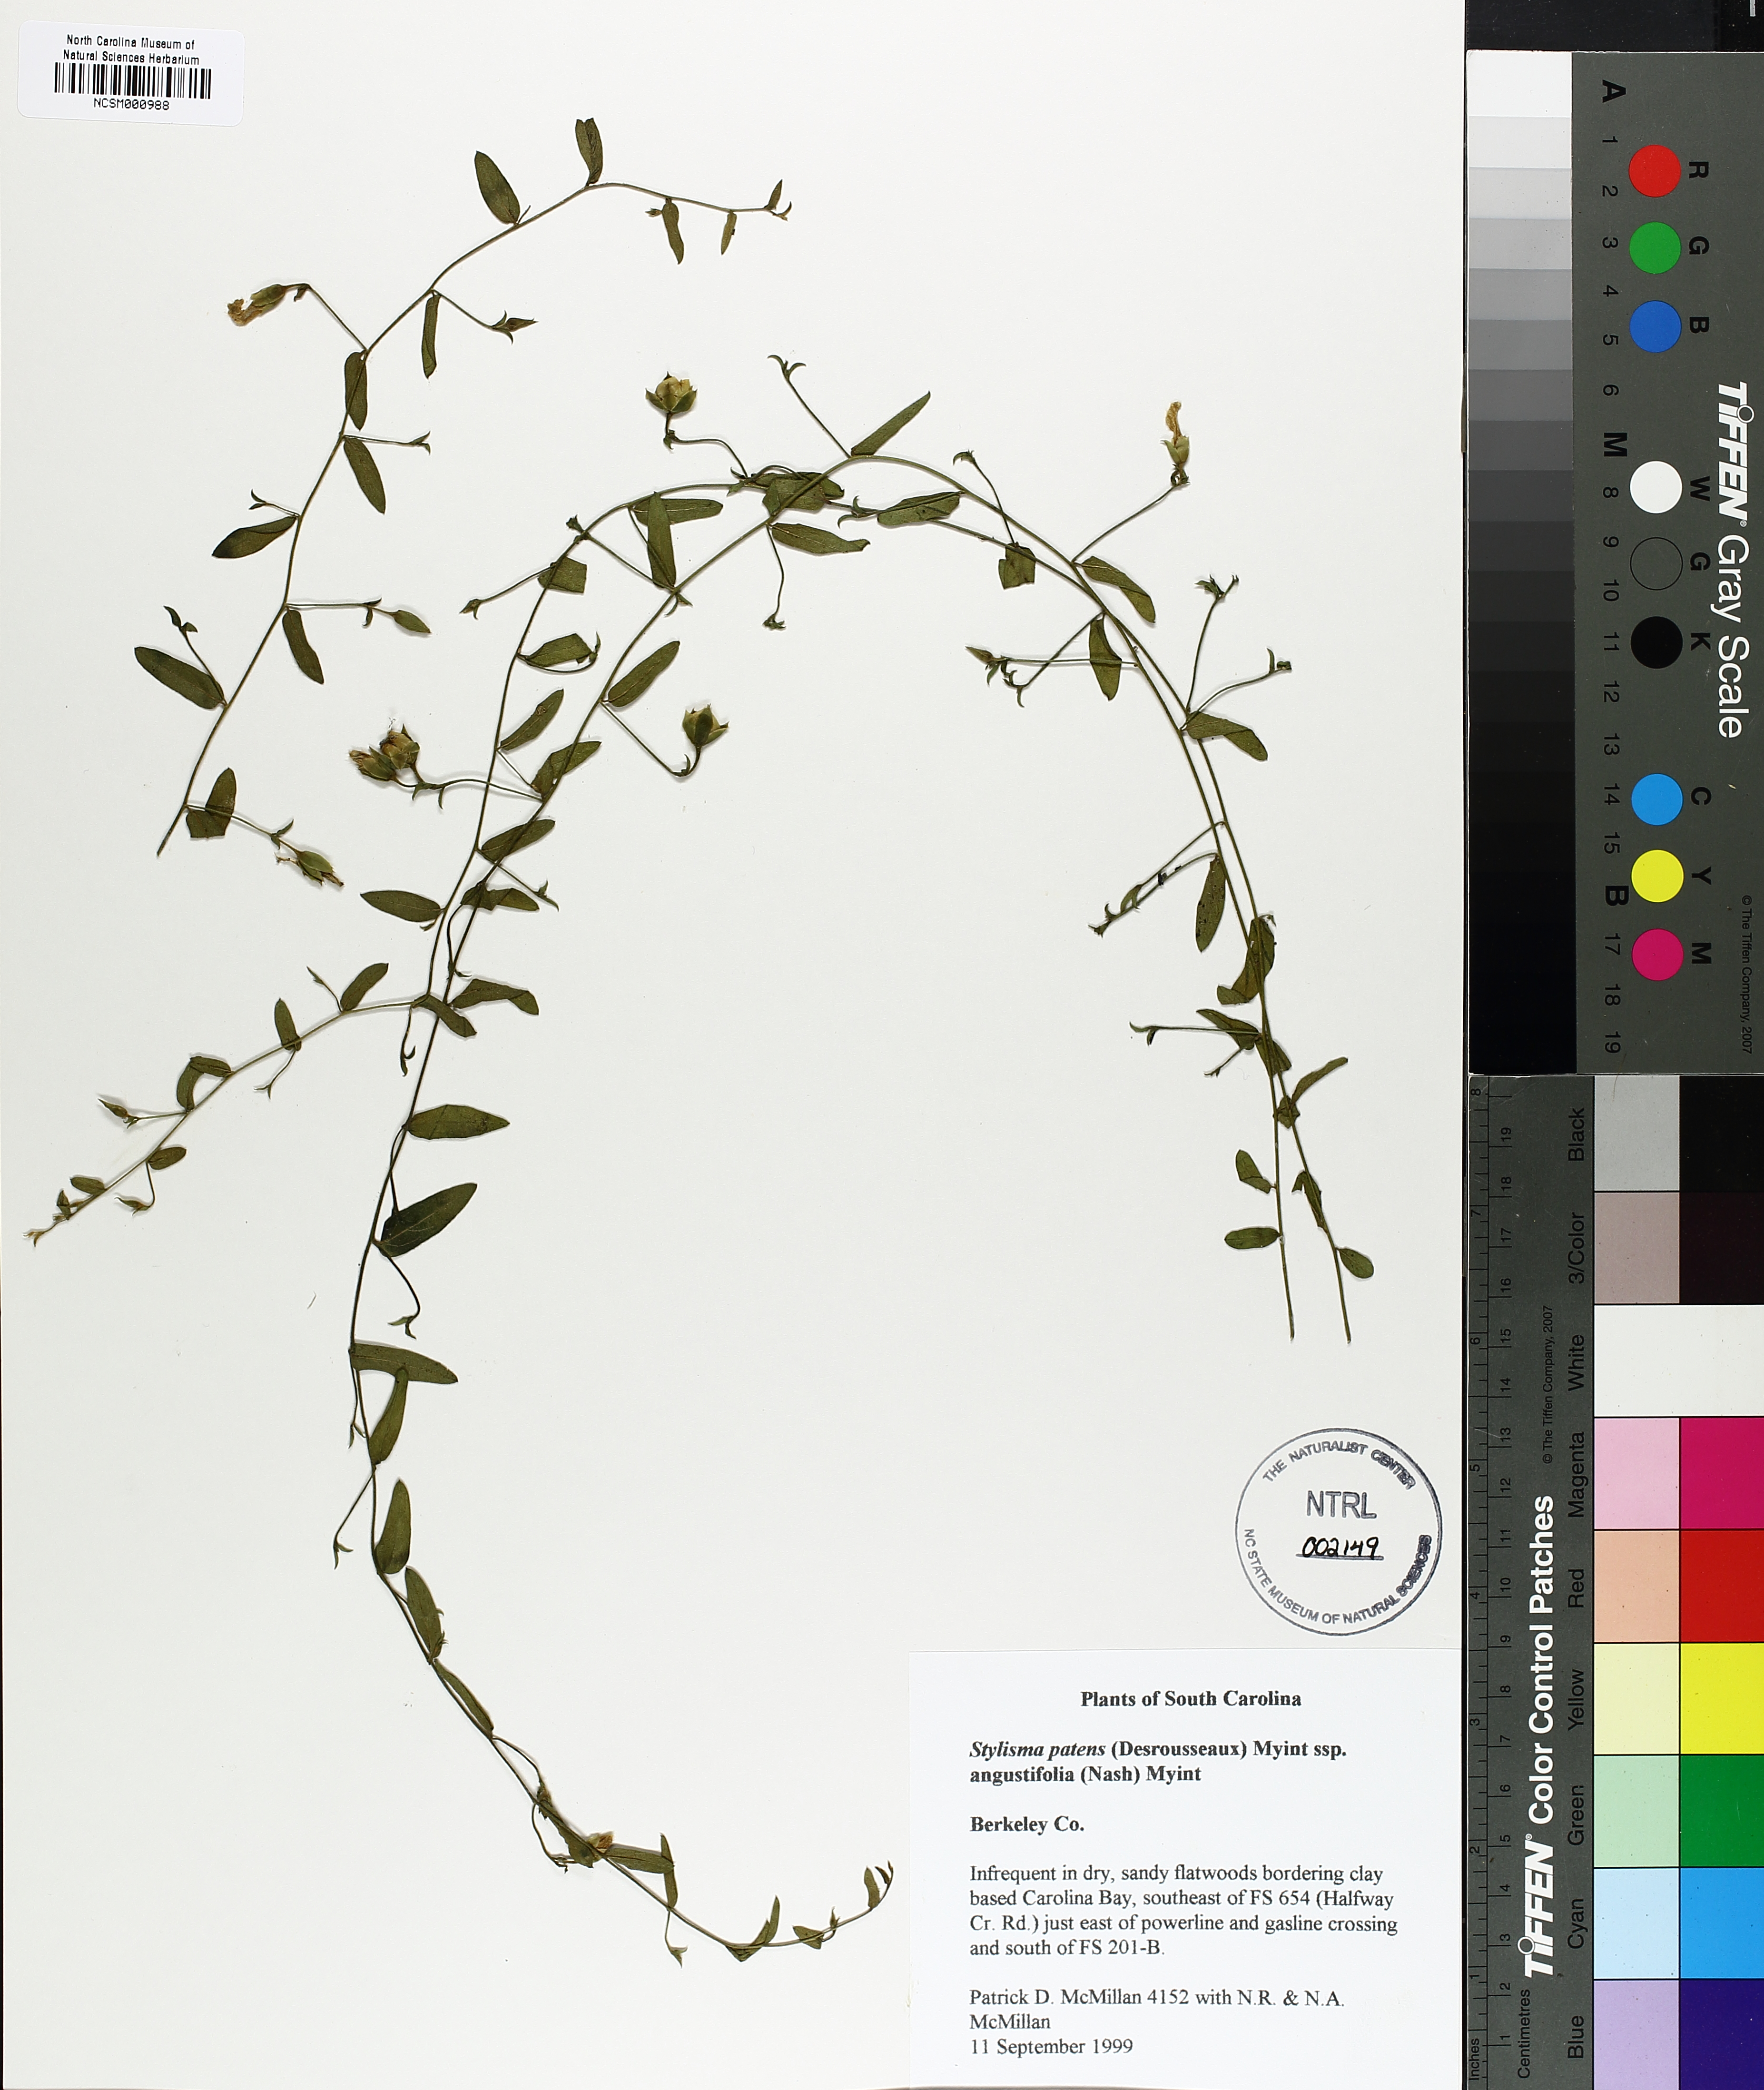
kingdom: Plantae
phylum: Tracheophyta
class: Magnoliopsida
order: Solanales
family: Convolvulaceae
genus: Stylisma
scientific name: Stylisma patens
